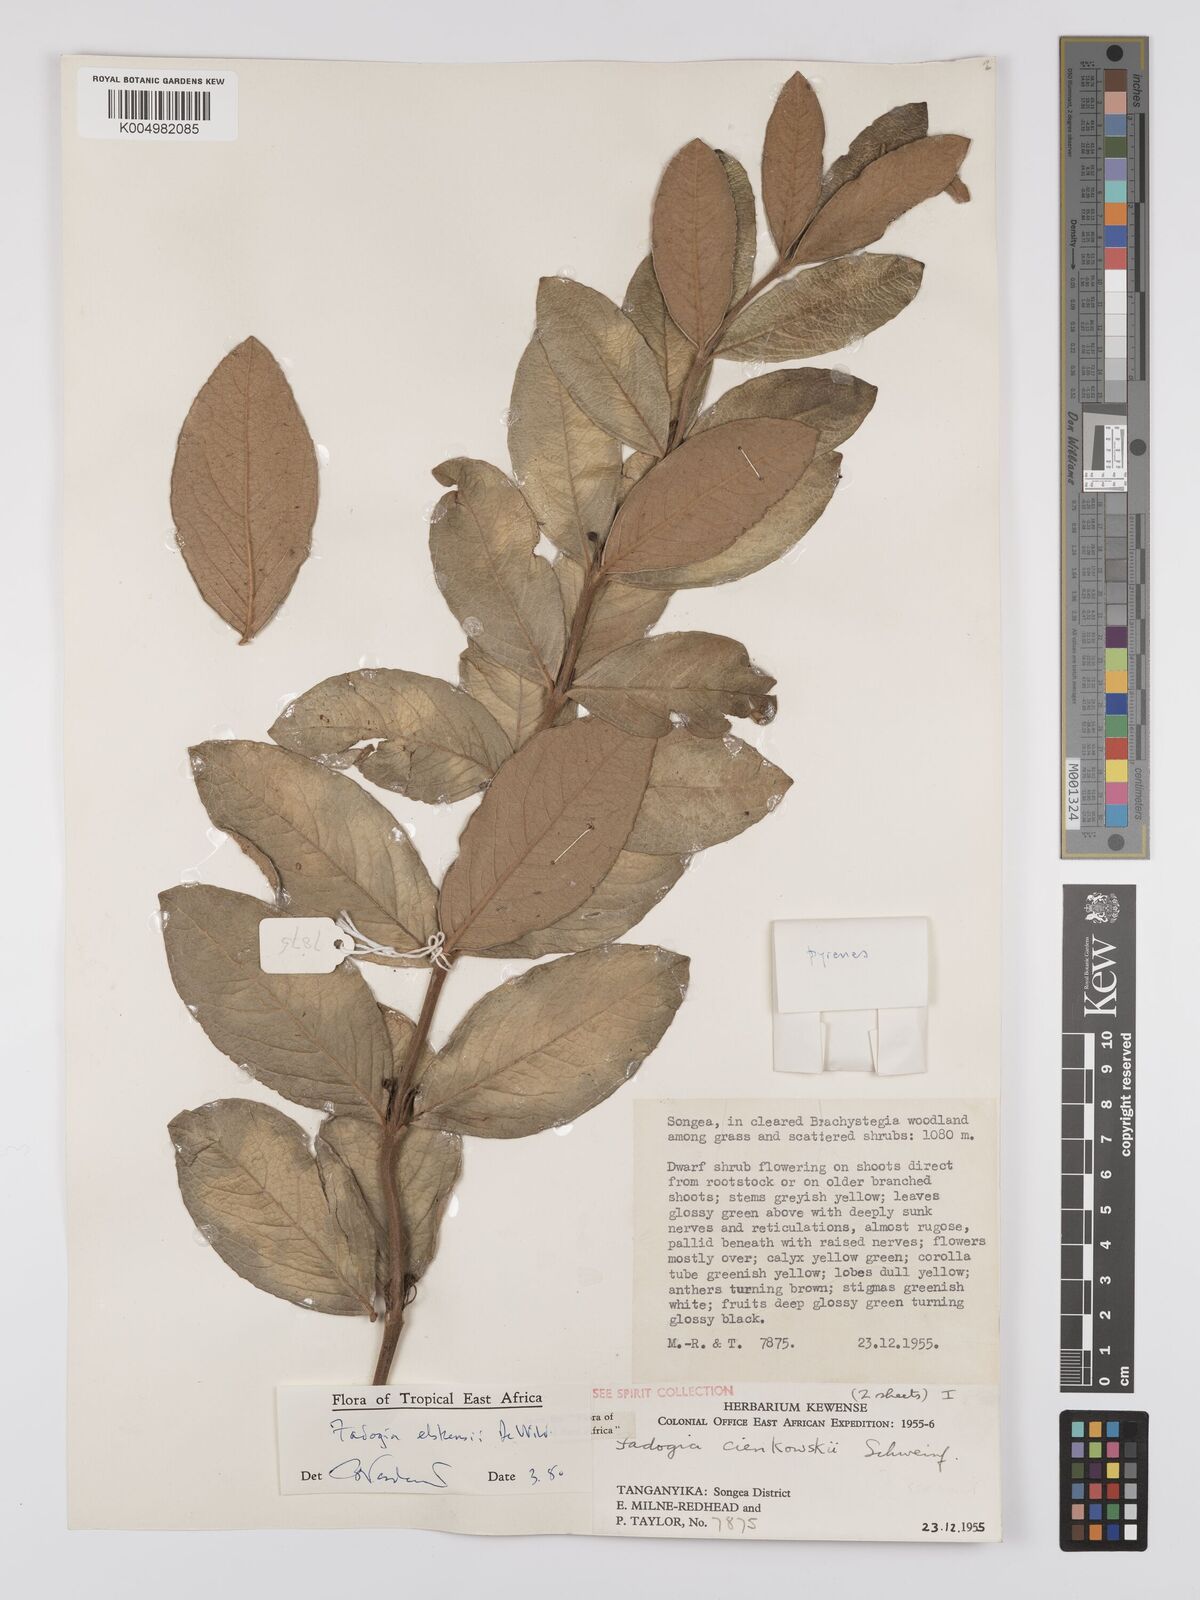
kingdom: Plantae
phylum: Tracheophyta
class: Magnoliopsida
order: Gentianales
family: Rubiaceae
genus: Fadogia
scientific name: Fadogia elskensii
